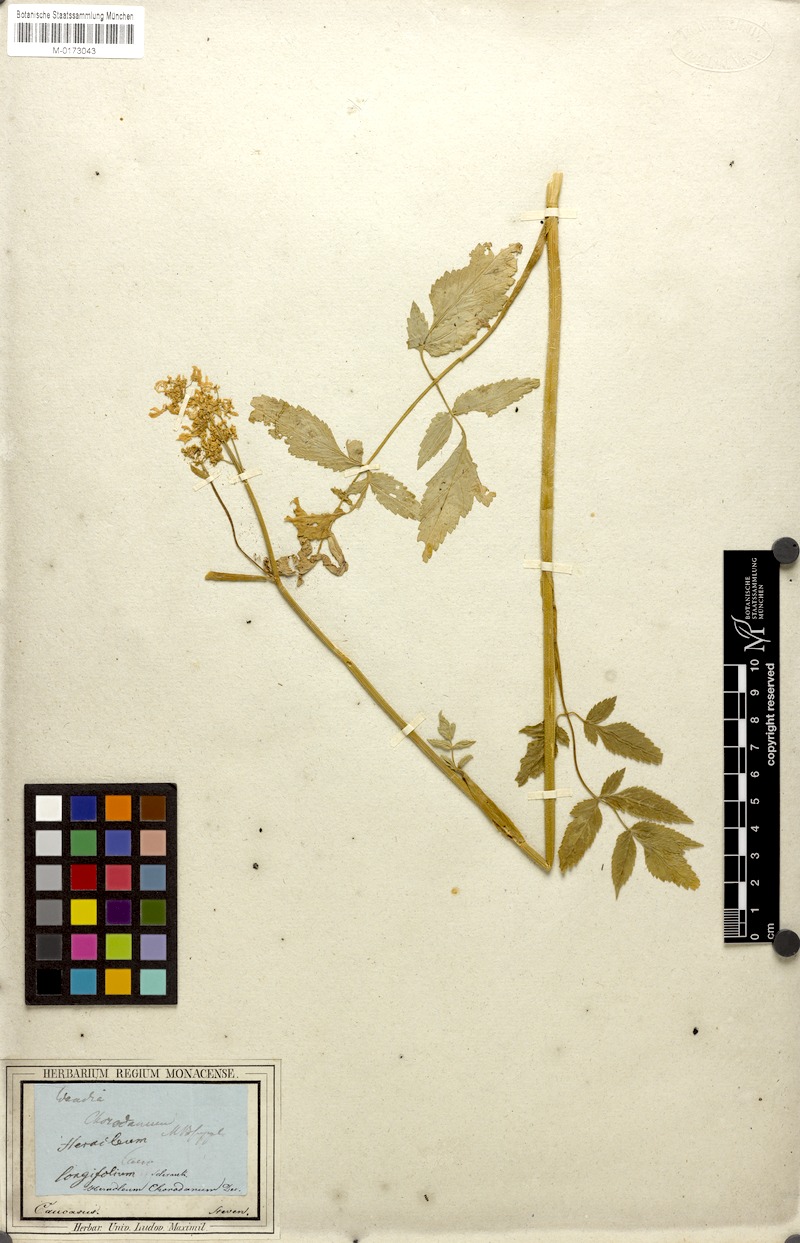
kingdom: Plantae
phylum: Tracheophyta
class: Magnoliopsida
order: Apiales
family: Apiaceae
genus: Heracleum
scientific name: Heracleum chorodanum
